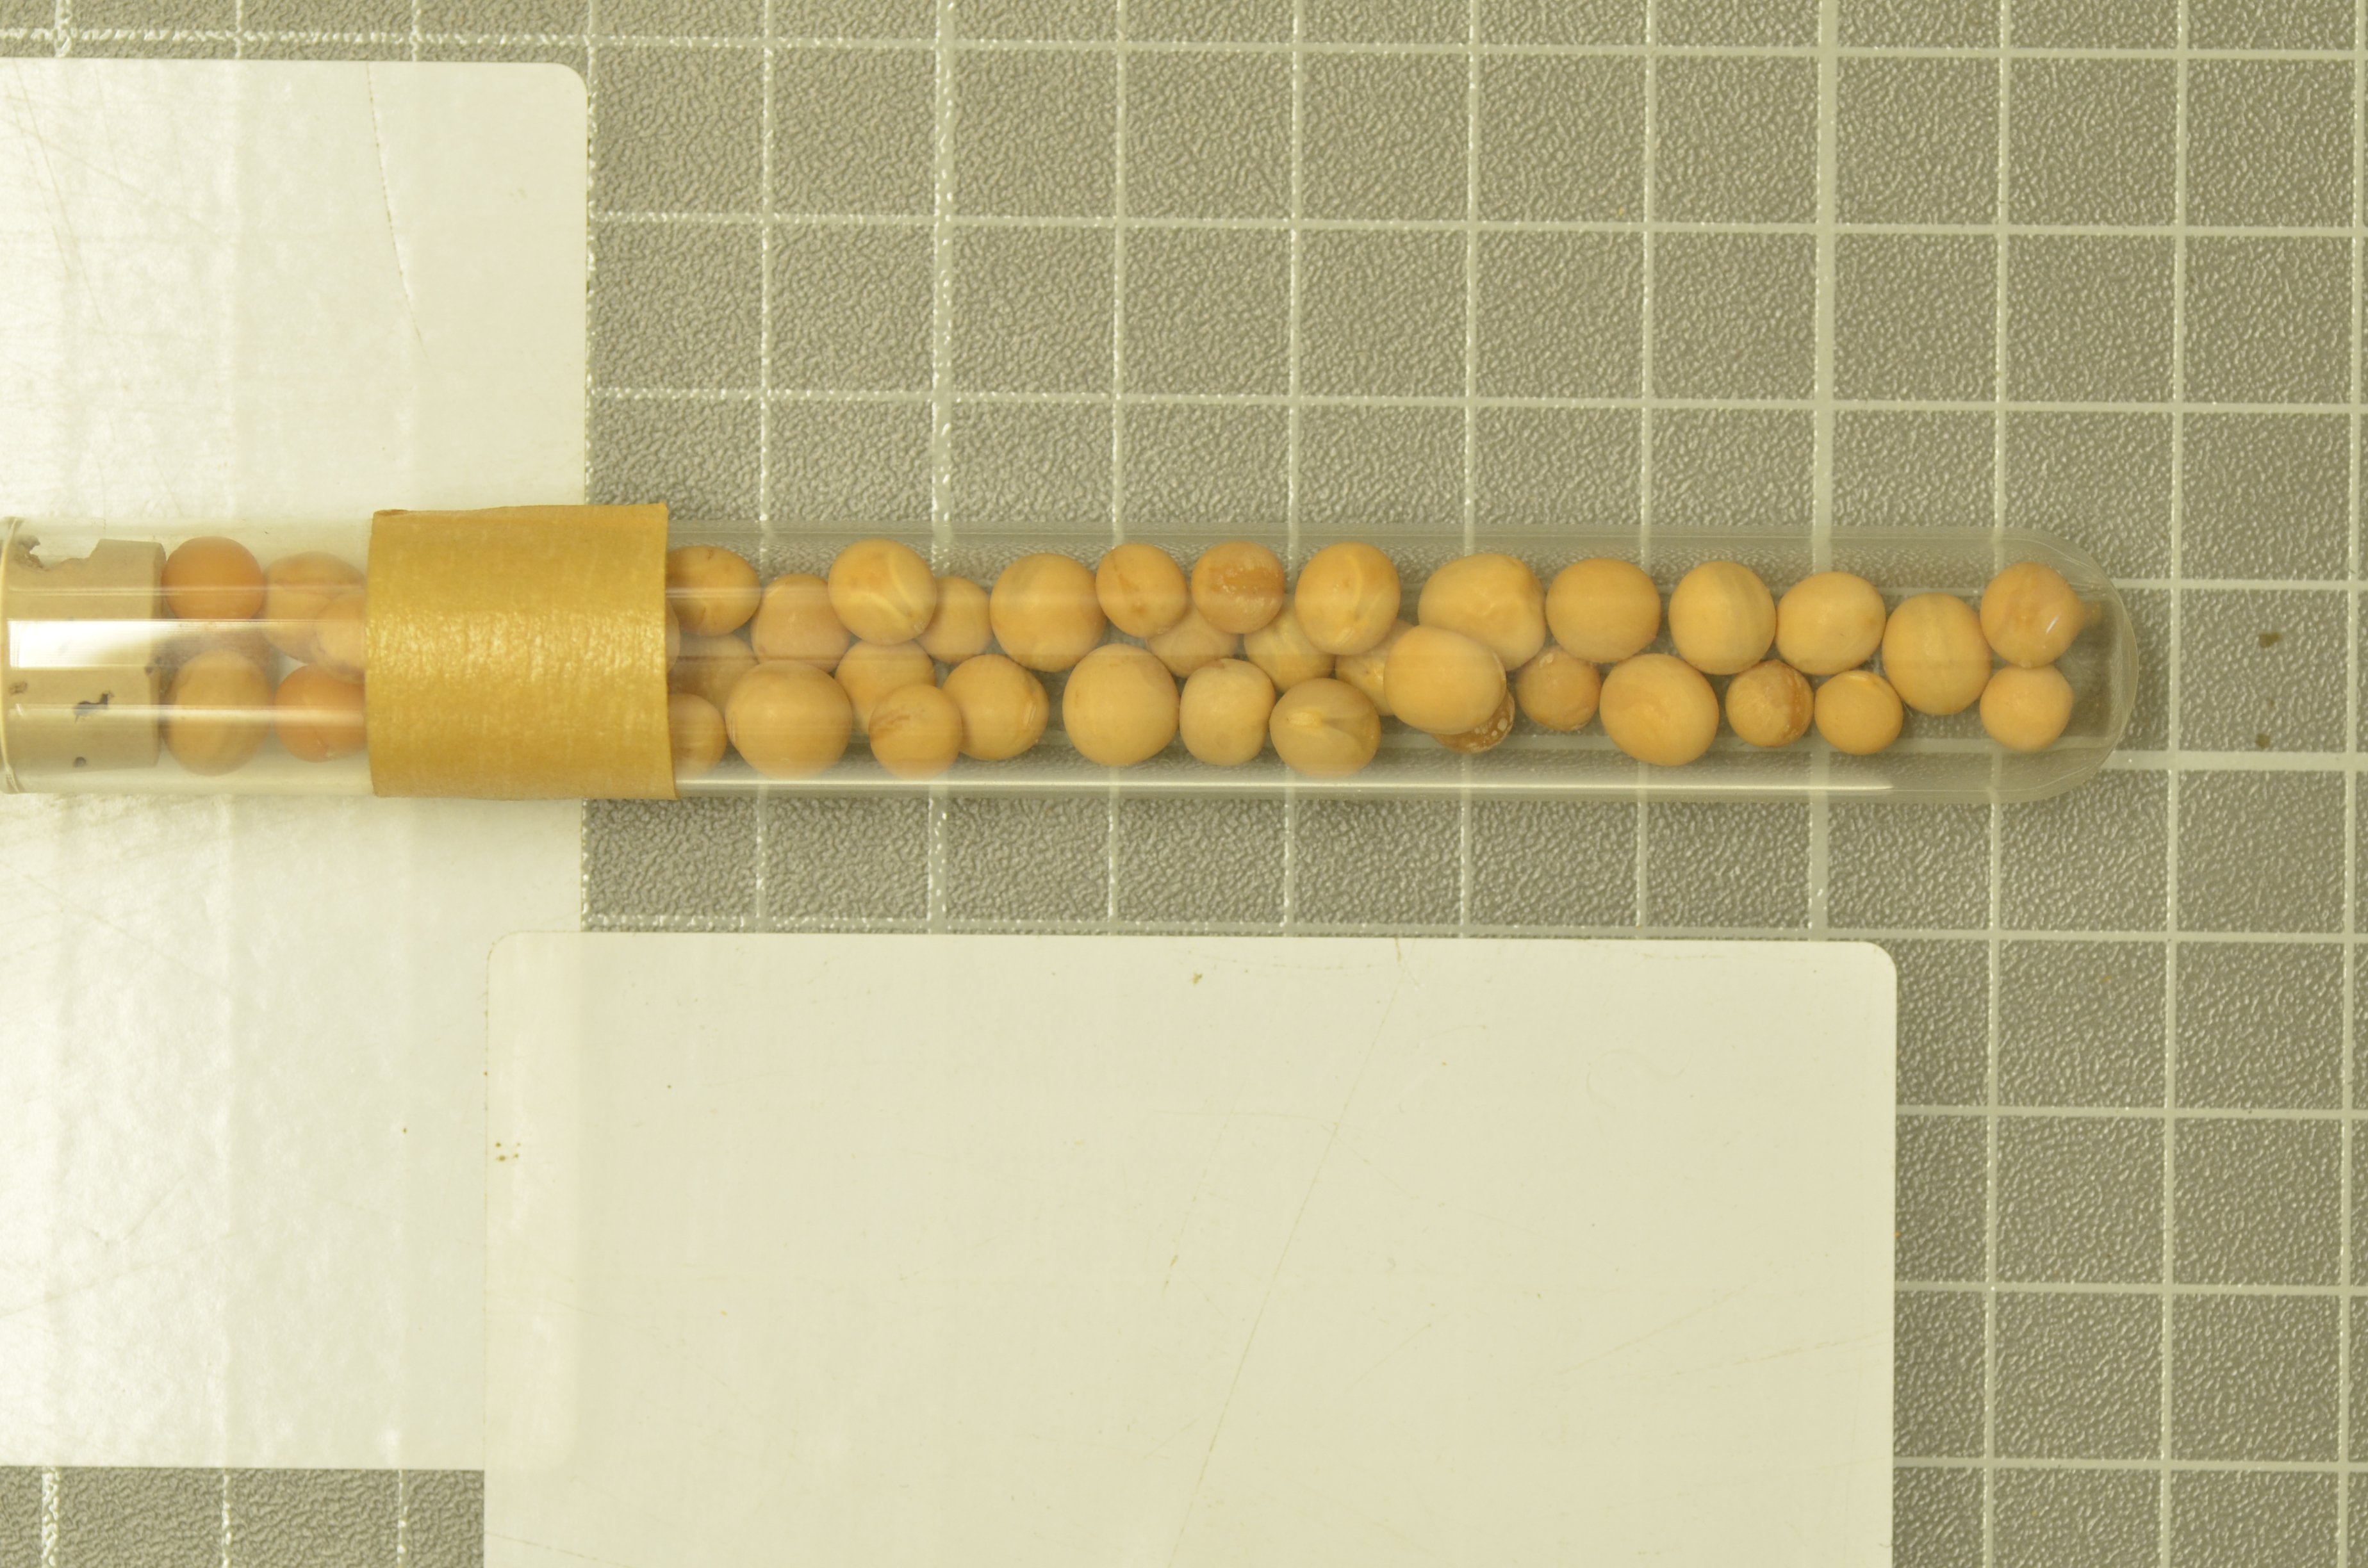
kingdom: Plantae
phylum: Tracheophyta
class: Magnoliopsida
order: Fabales
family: Fabaceae
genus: Lathyrus
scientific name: Lathyrus oleraceus
